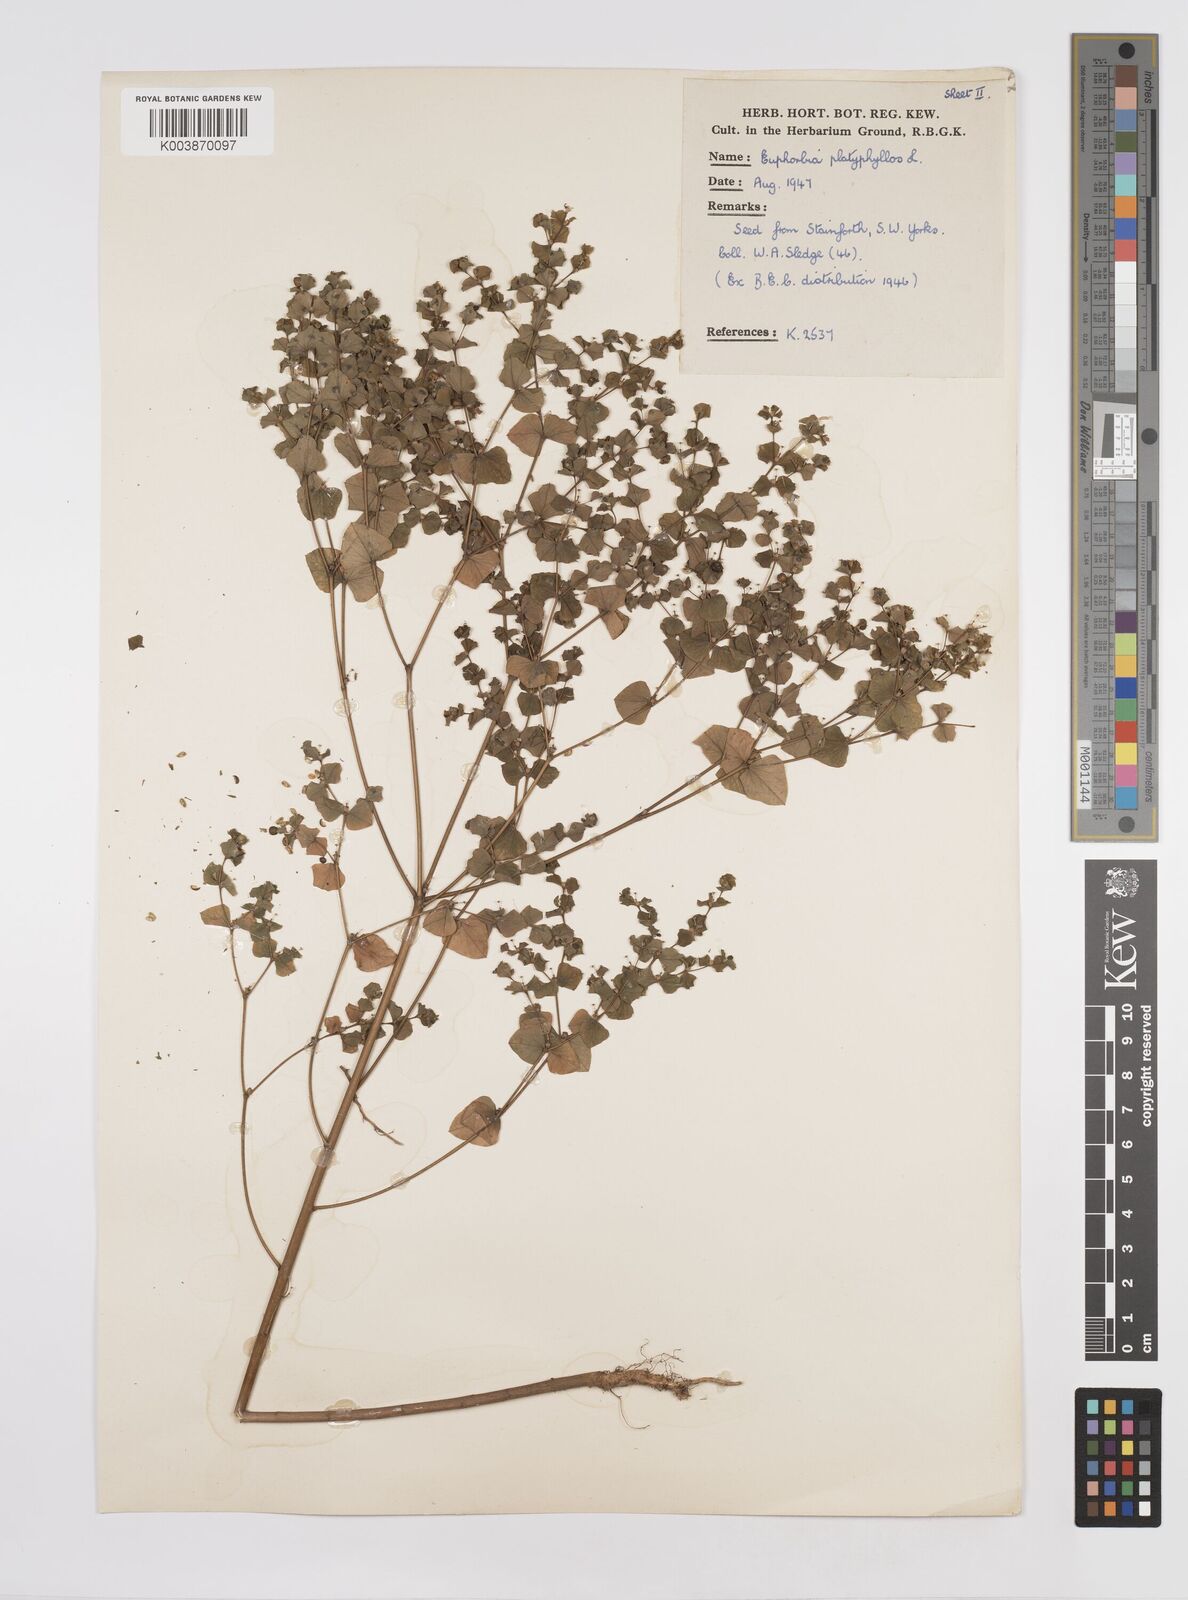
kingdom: Plantae
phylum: Tracheophyta
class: Magnoliopsida
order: Malpighiales
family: Euphorbiaceae
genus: Euphorbia
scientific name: Euphorbia platyphyllos
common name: Broad-leaved spurge
